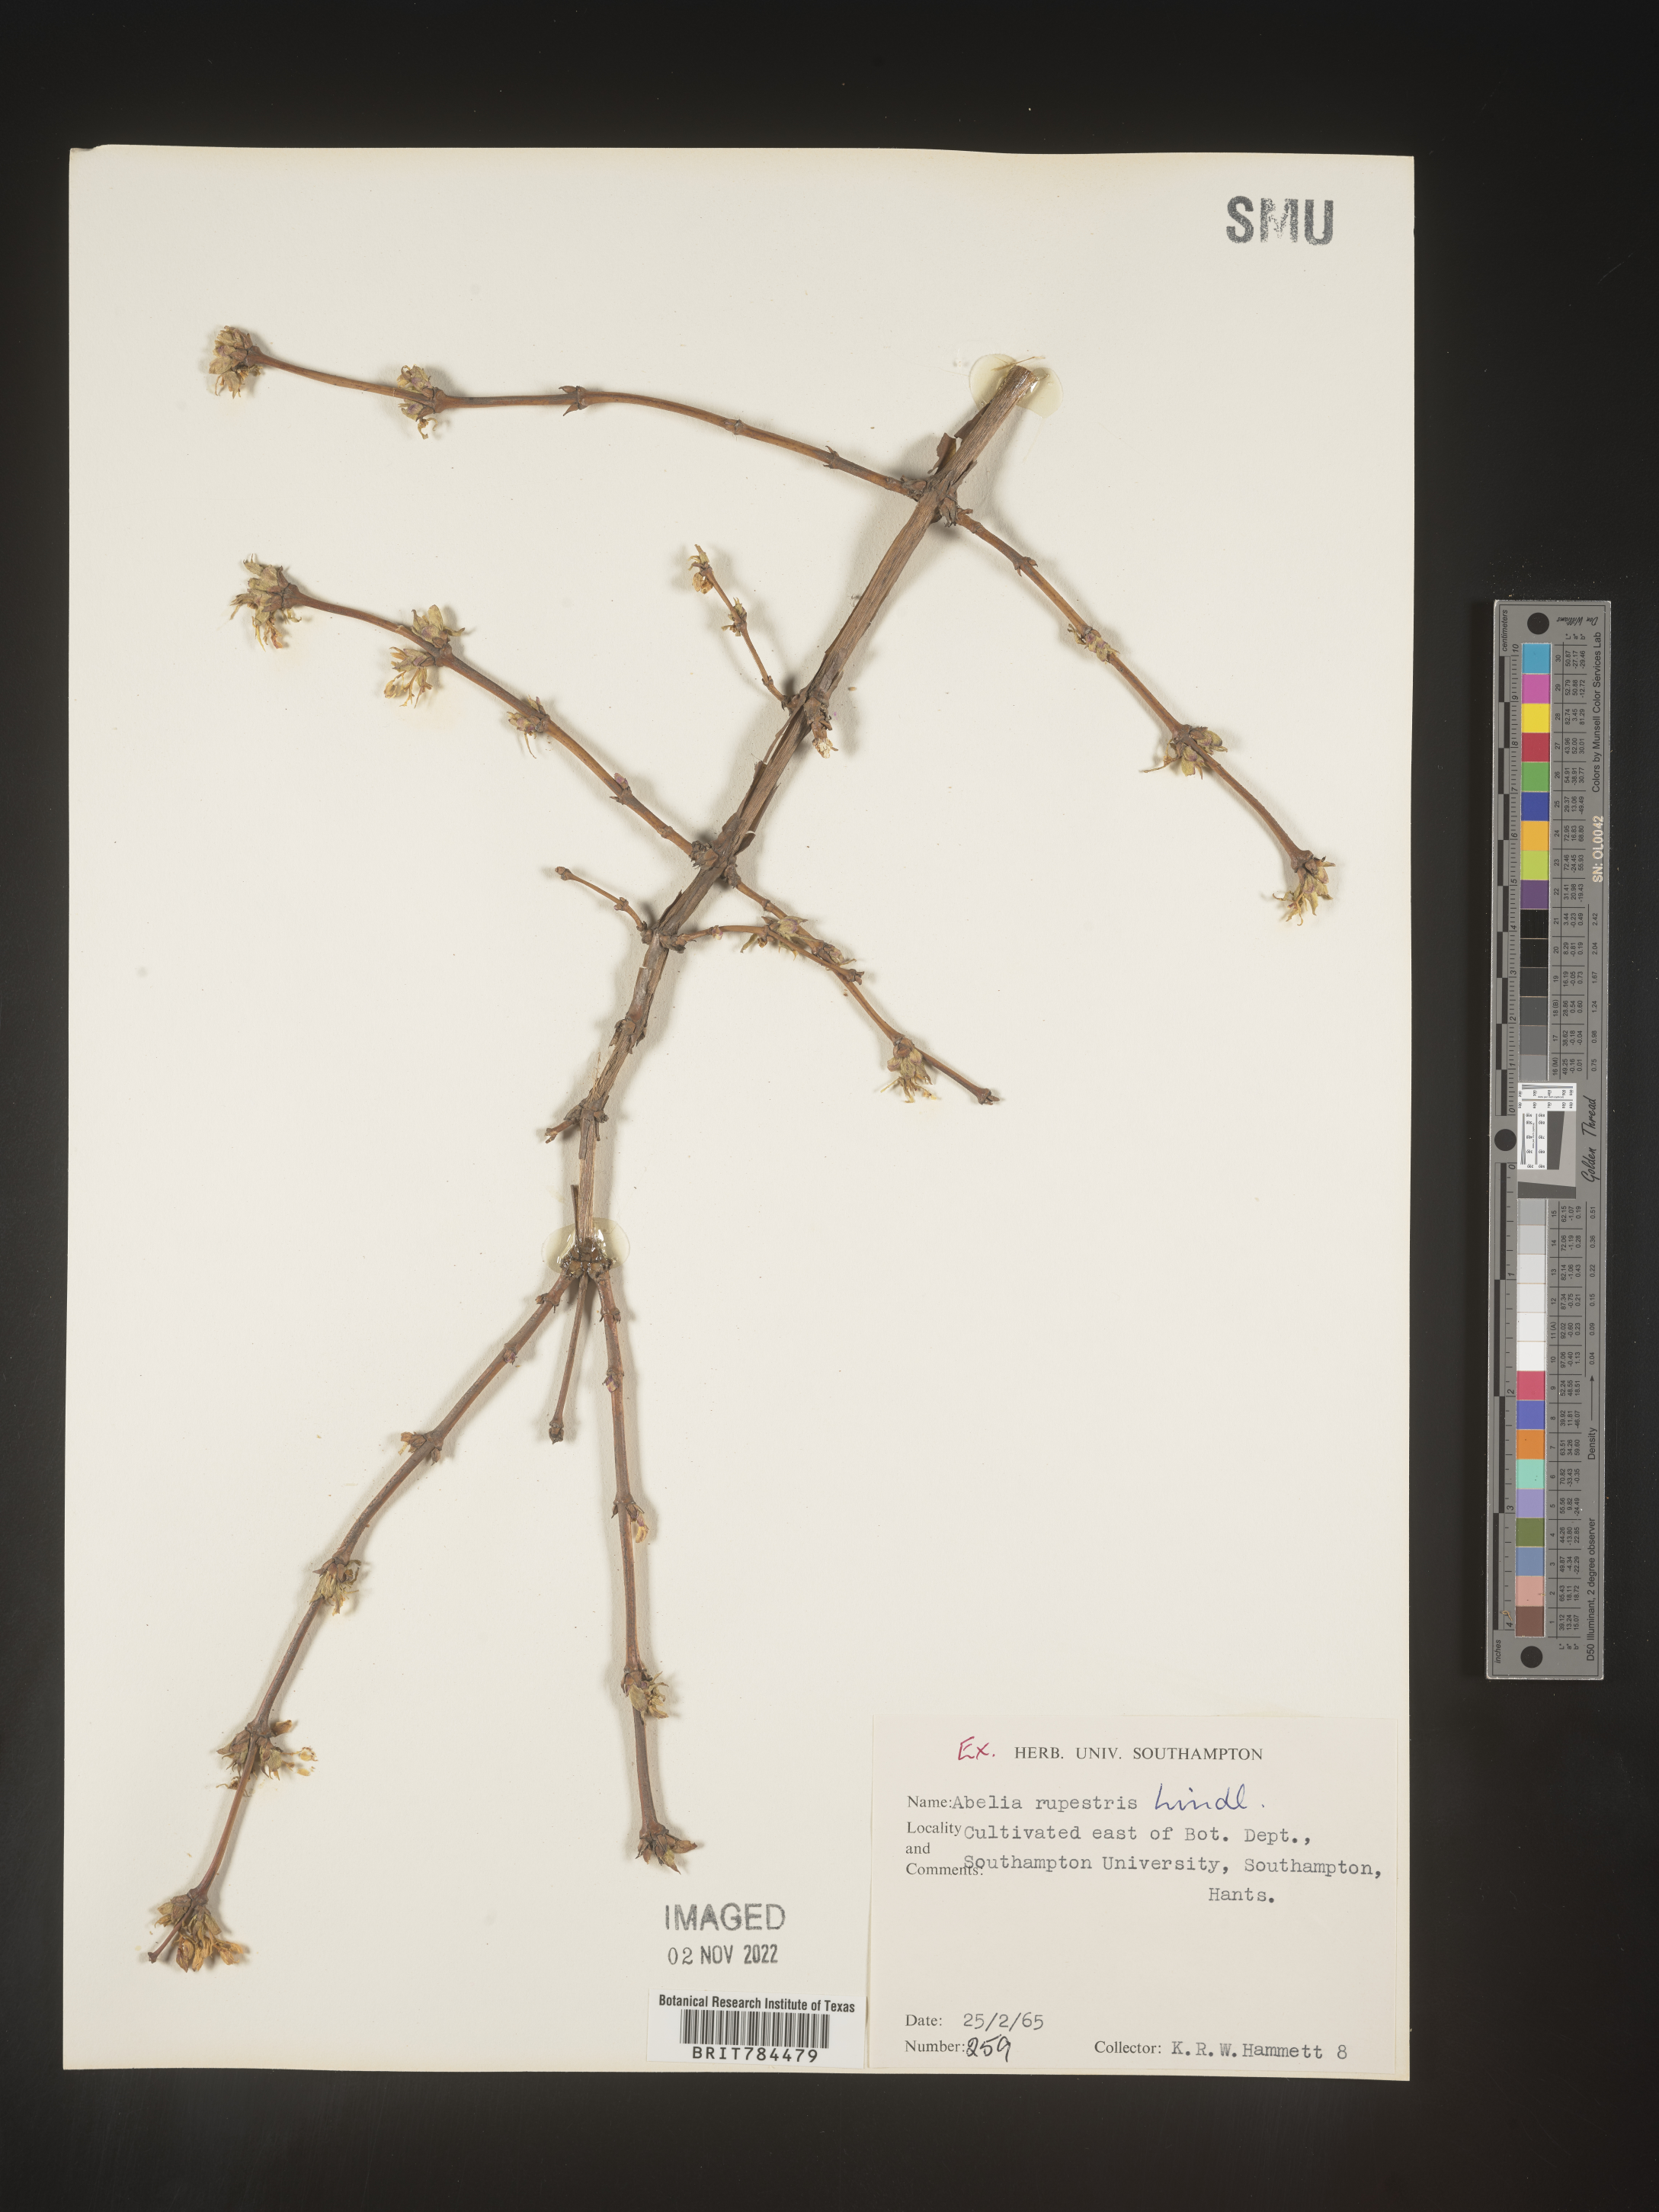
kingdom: Plantae
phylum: Tracheophyta
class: Magnoliopsida
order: Dipsacales
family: Caprifoliaceae
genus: Abelia
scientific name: Abelia
